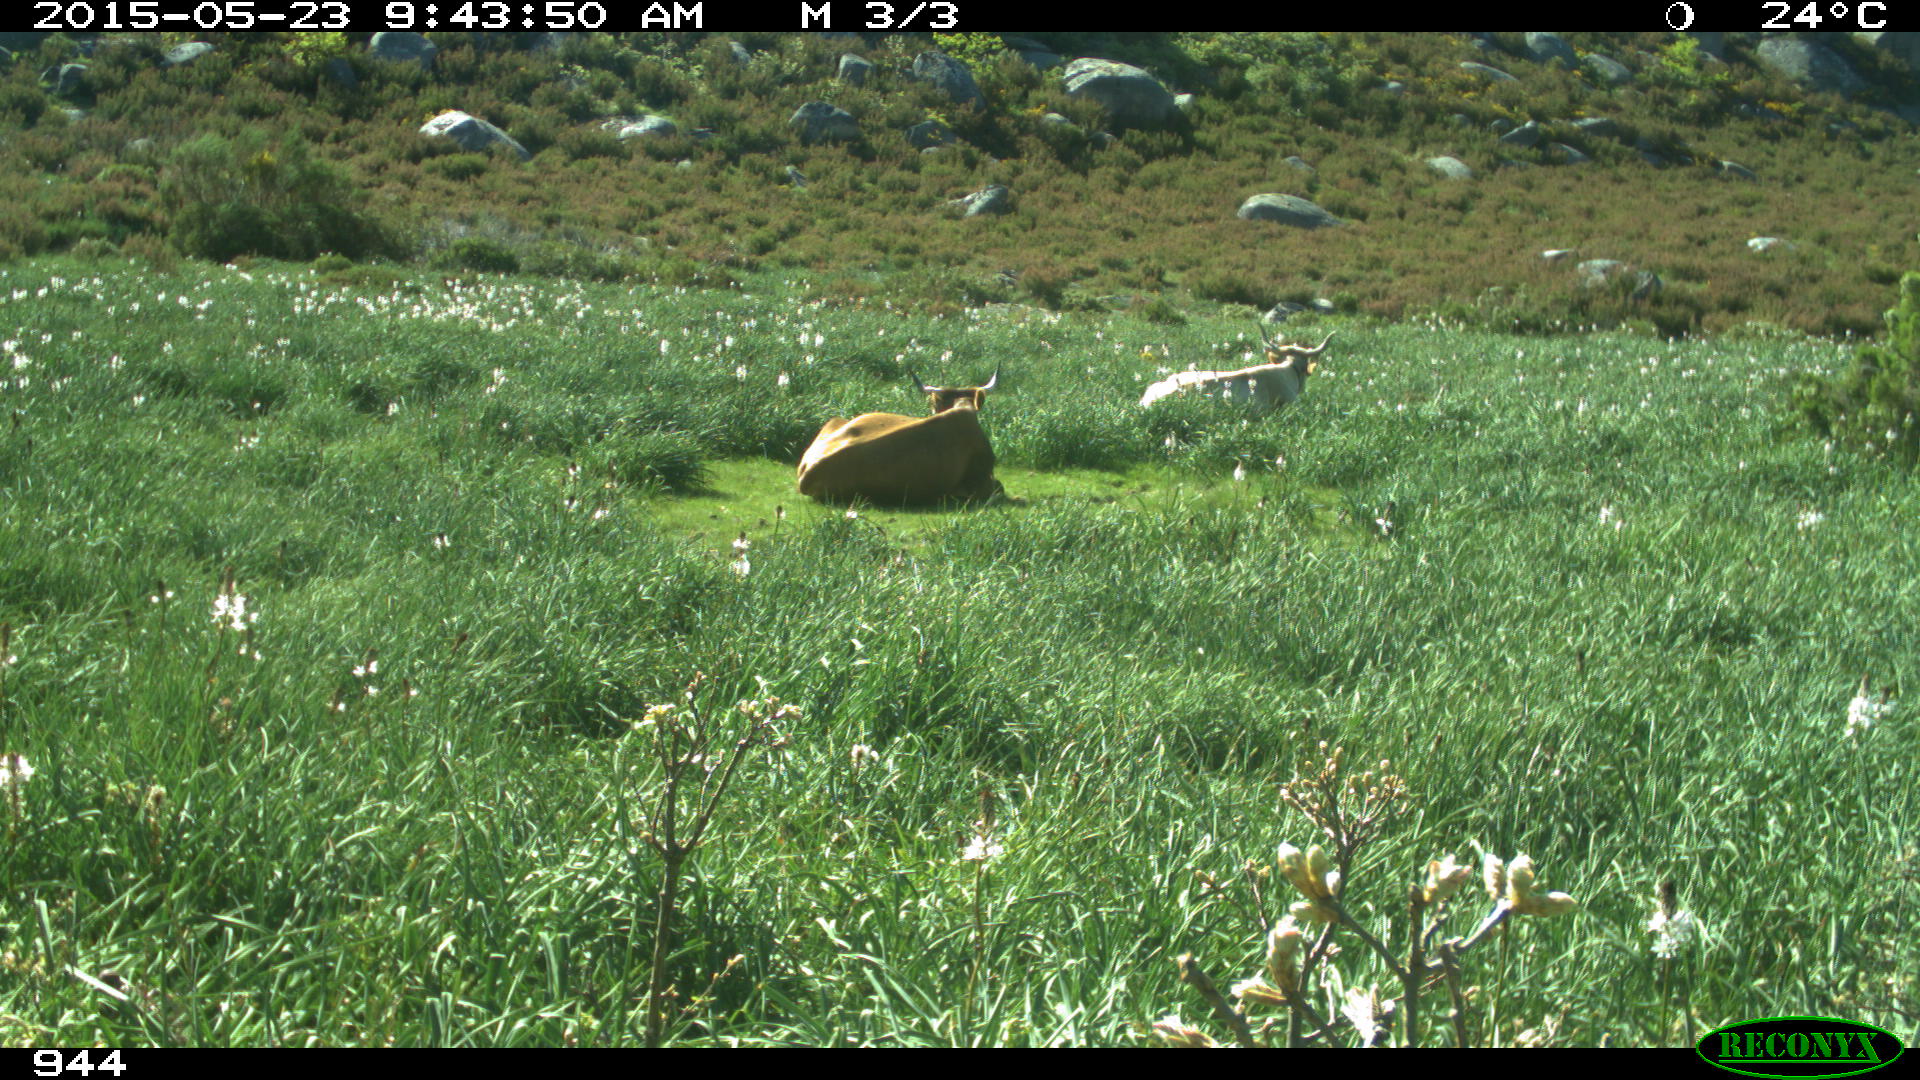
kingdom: Animalia
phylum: Chordata
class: Mammalia
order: Artiodactyla
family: Bovidae
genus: Bos
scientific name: Bos taurus
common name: Domesticated cattle
